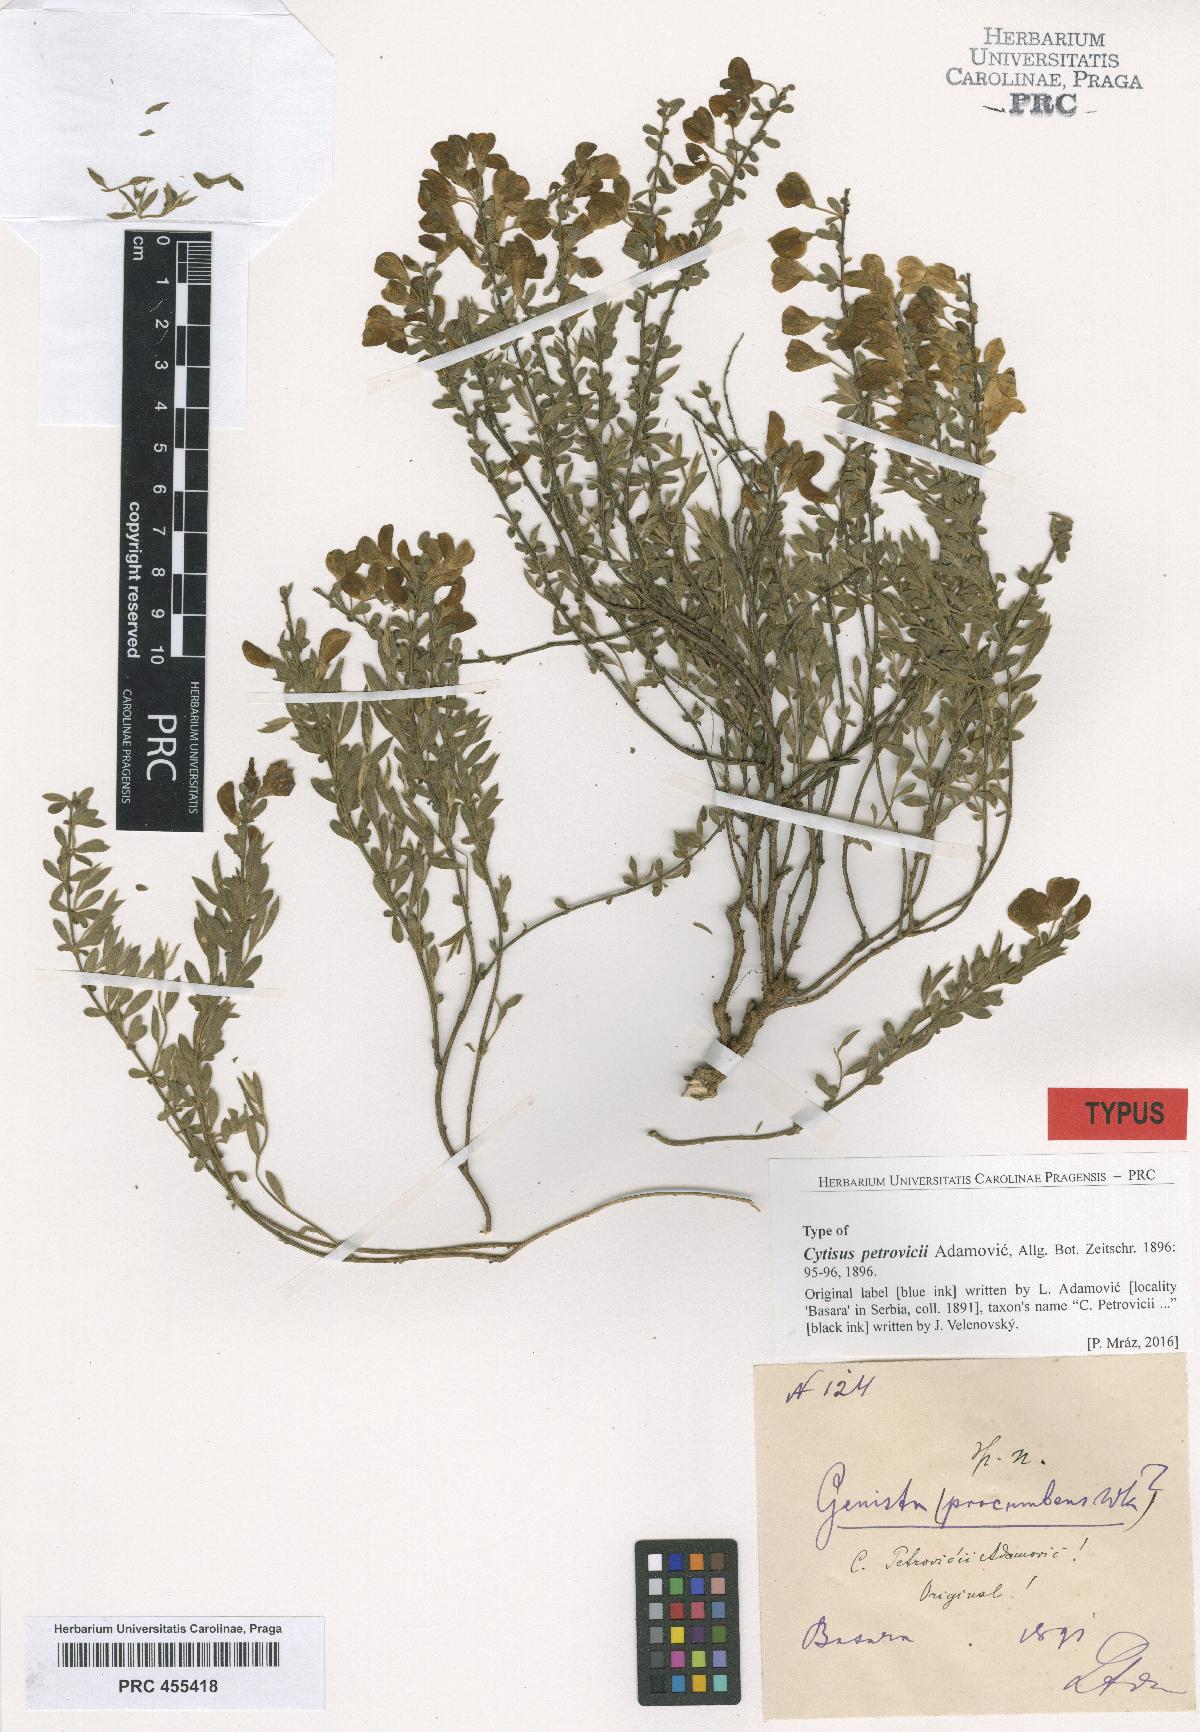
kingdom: Plantae
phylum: Tracheophyta
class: Magnoliopsida
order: Fabales
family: Fabaceae
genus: Cytisus
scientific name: Cytisus procumbens
